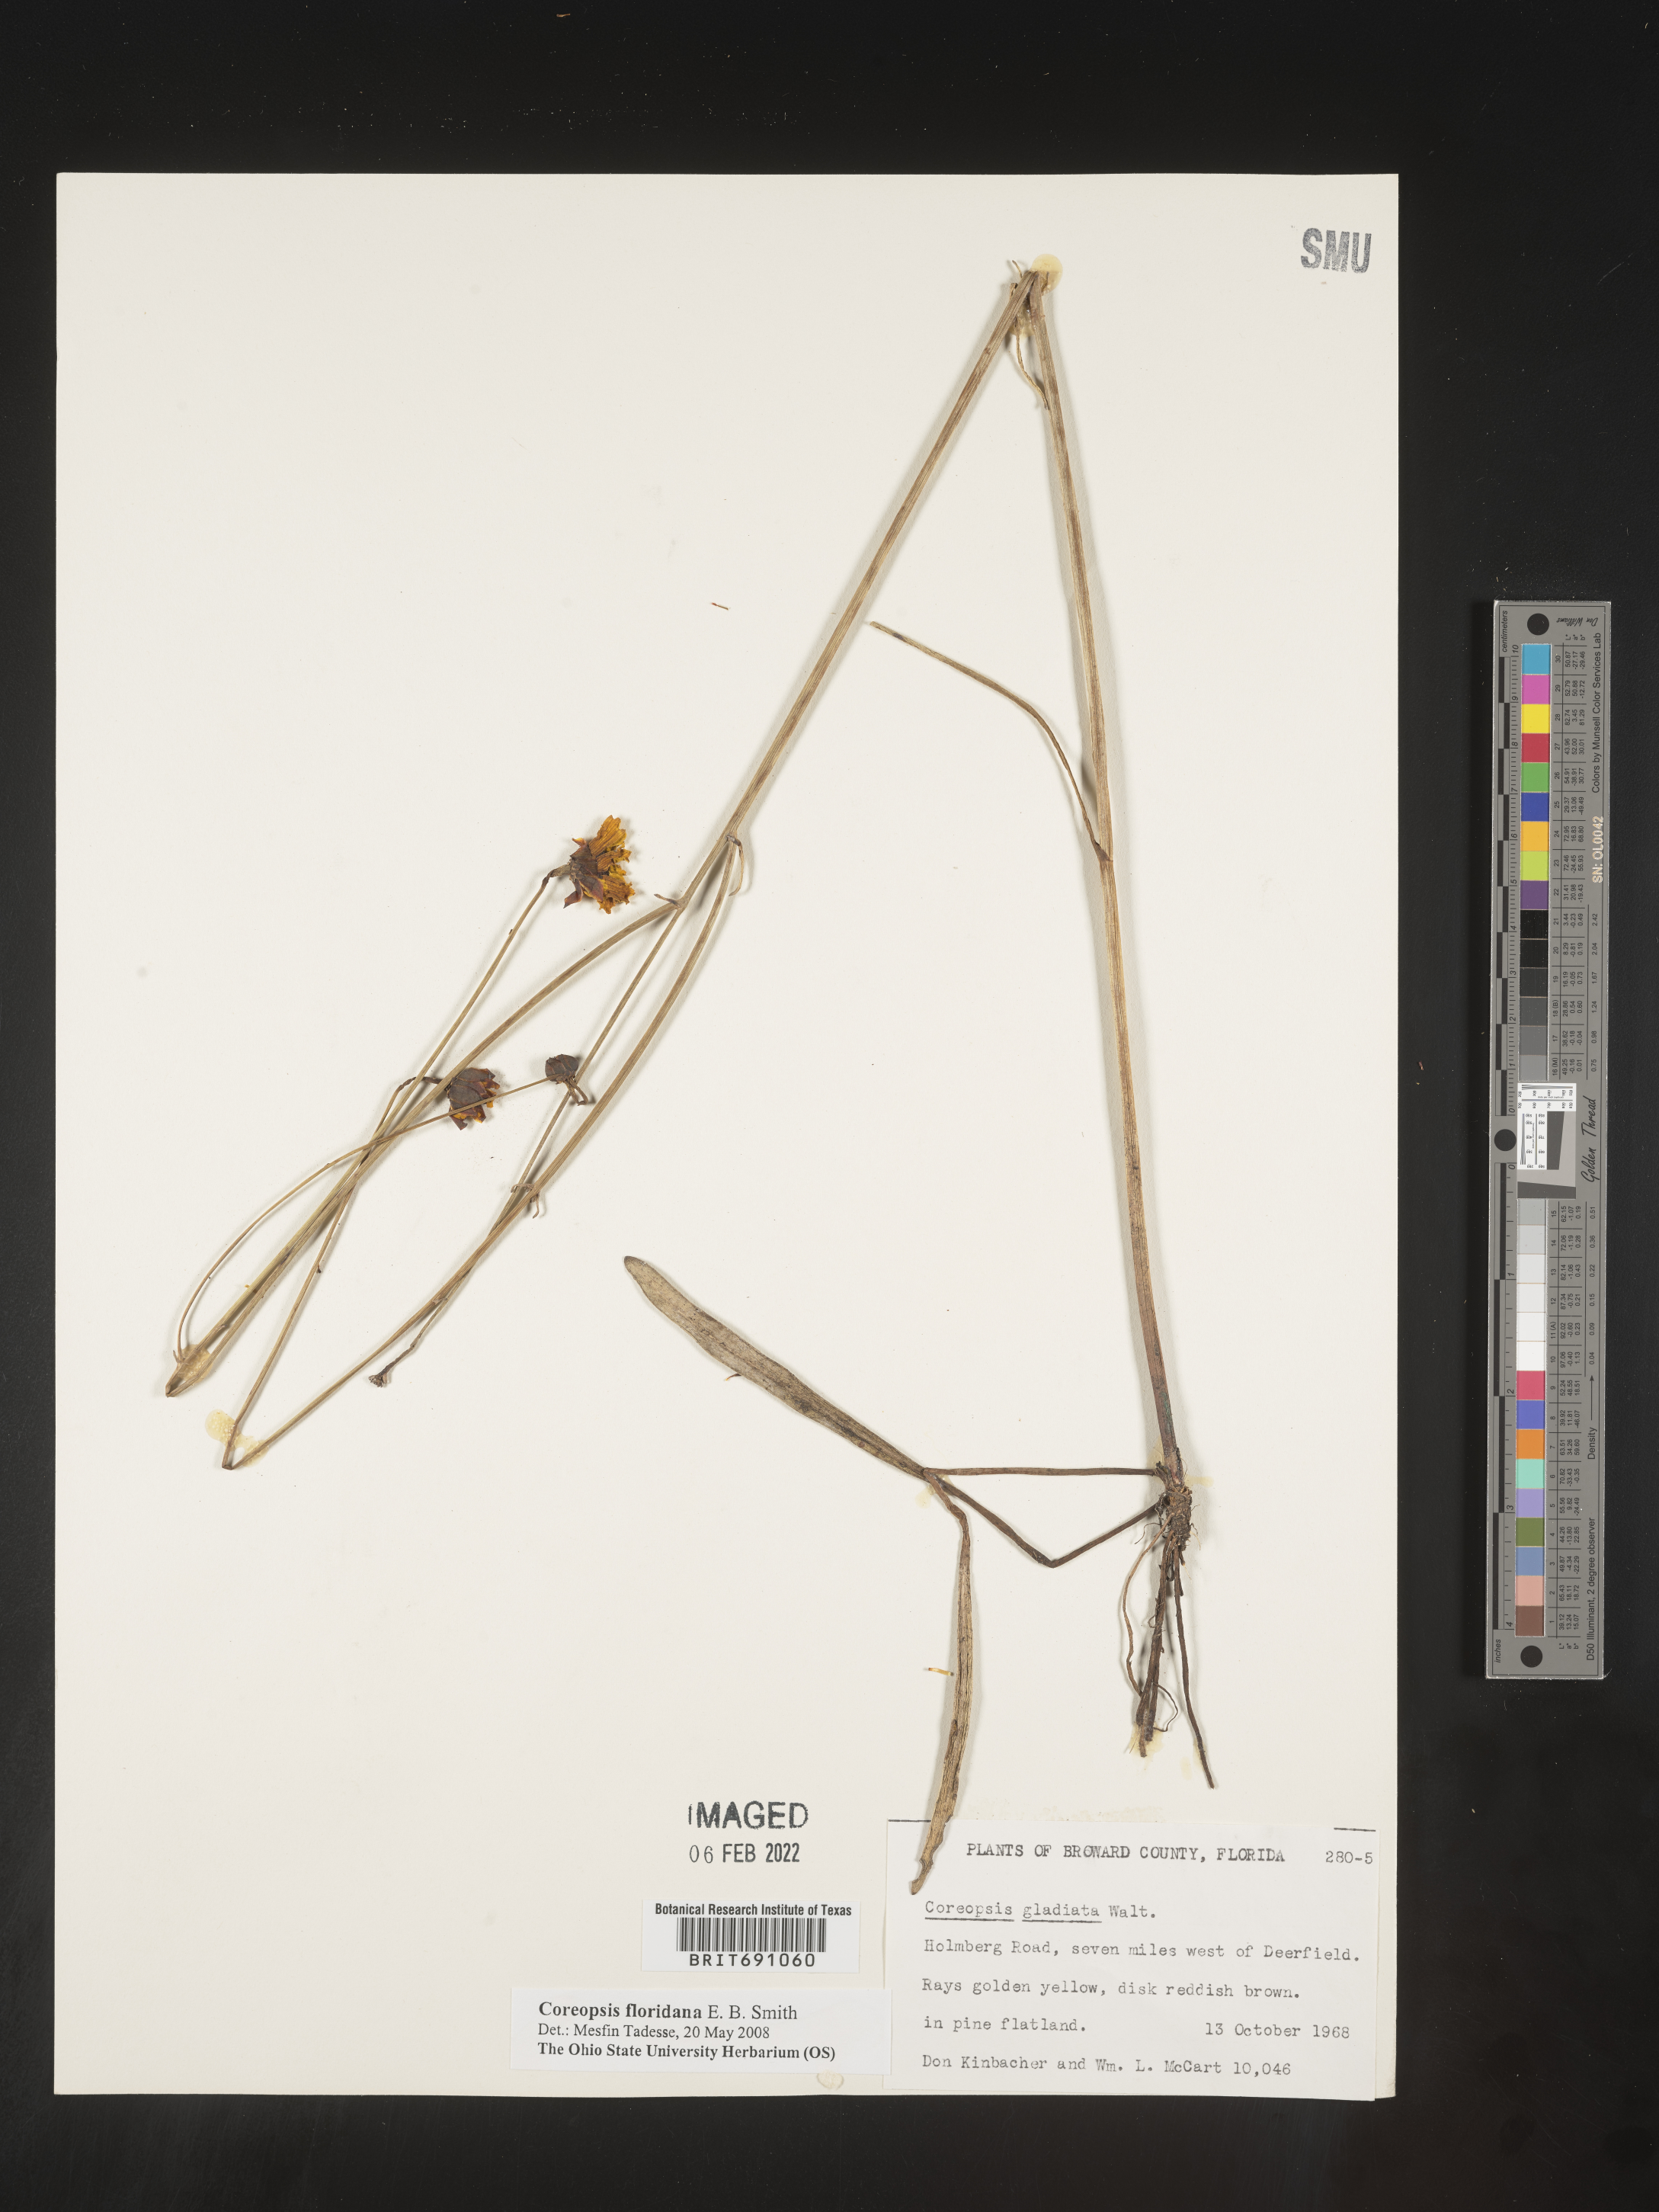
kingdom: Plantae
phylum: Tracheophyta
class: Magnoliopsida
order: Asterales
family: Asteraceae
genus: Coreopsis
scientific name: Coreopsis
